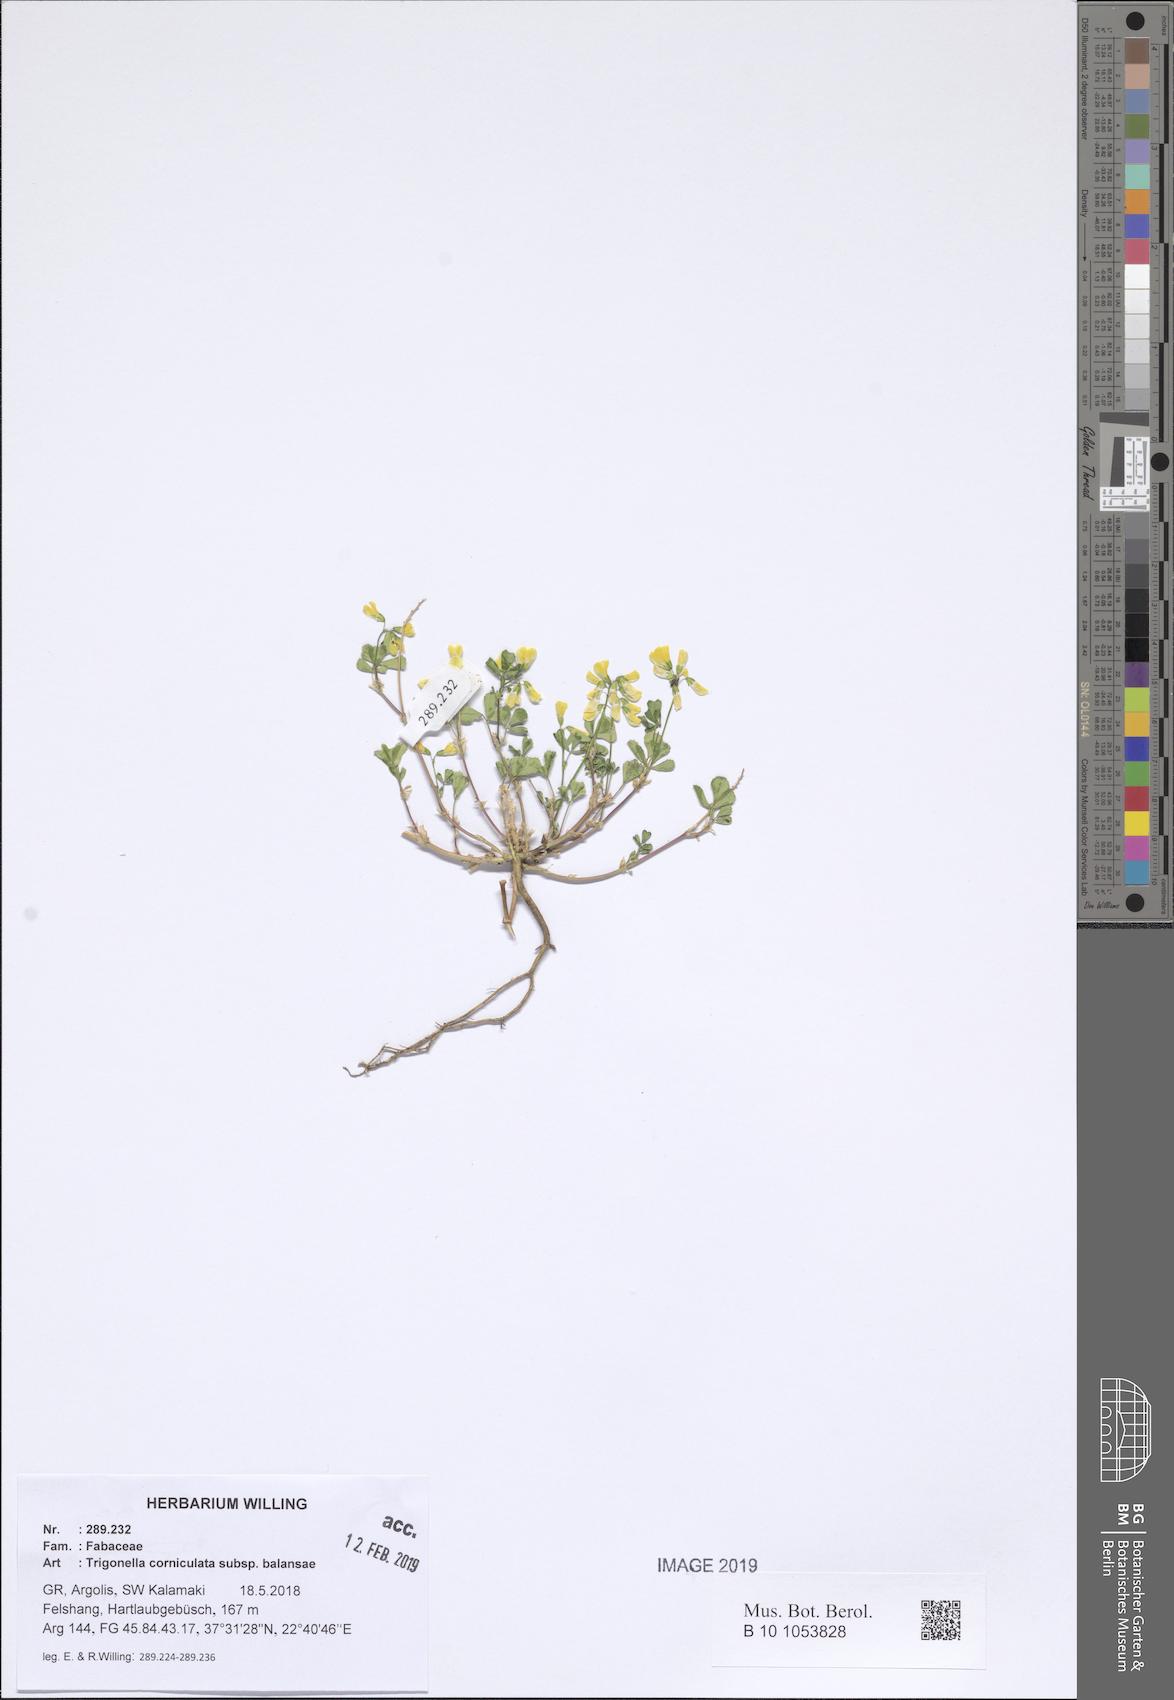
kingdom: Plantae
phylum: Tracheophyta
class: Magnoliopsida
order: Fabales
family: Fabaceae
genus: Trigonella
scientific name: Trigonella balansae
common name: Sickle-fruited fenugreek
